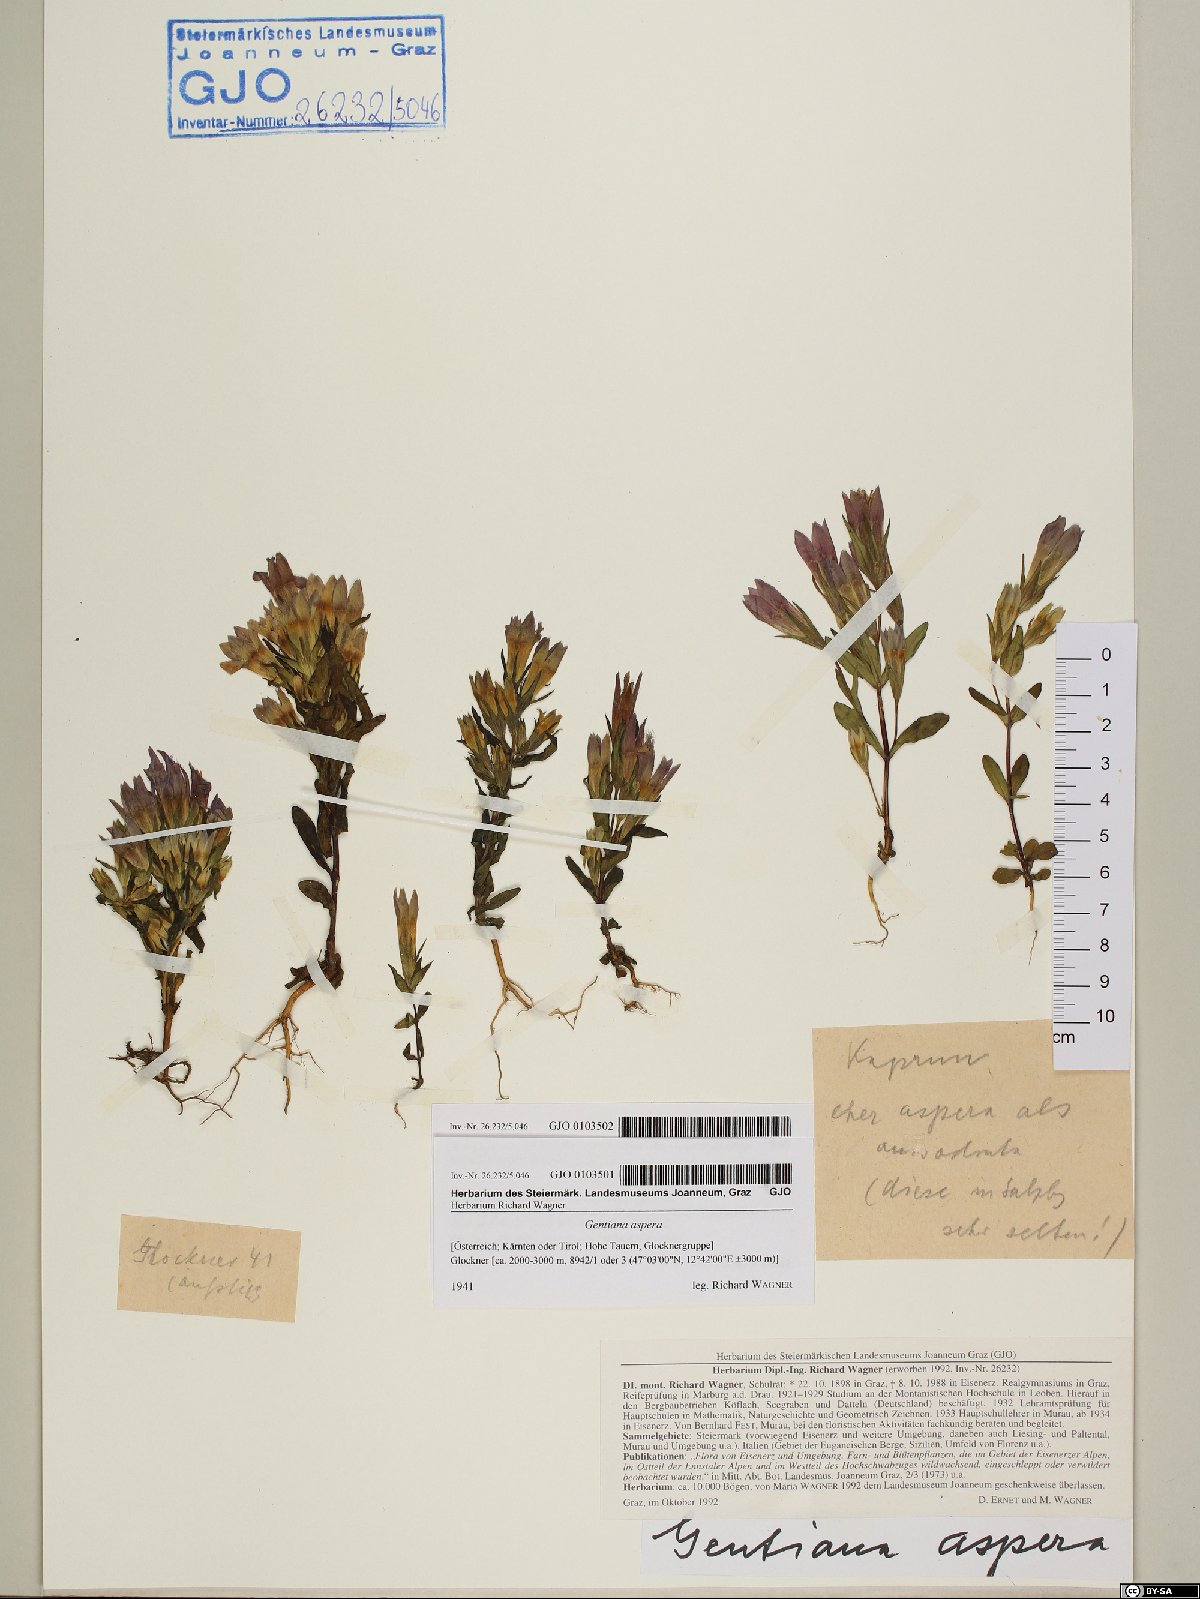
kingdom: Plantae
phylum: Tracheophyta
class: Magnoliopsida
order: Gentianales
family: Gentianaceae
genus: Gentianella
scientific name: Gentianella obtusifolia
